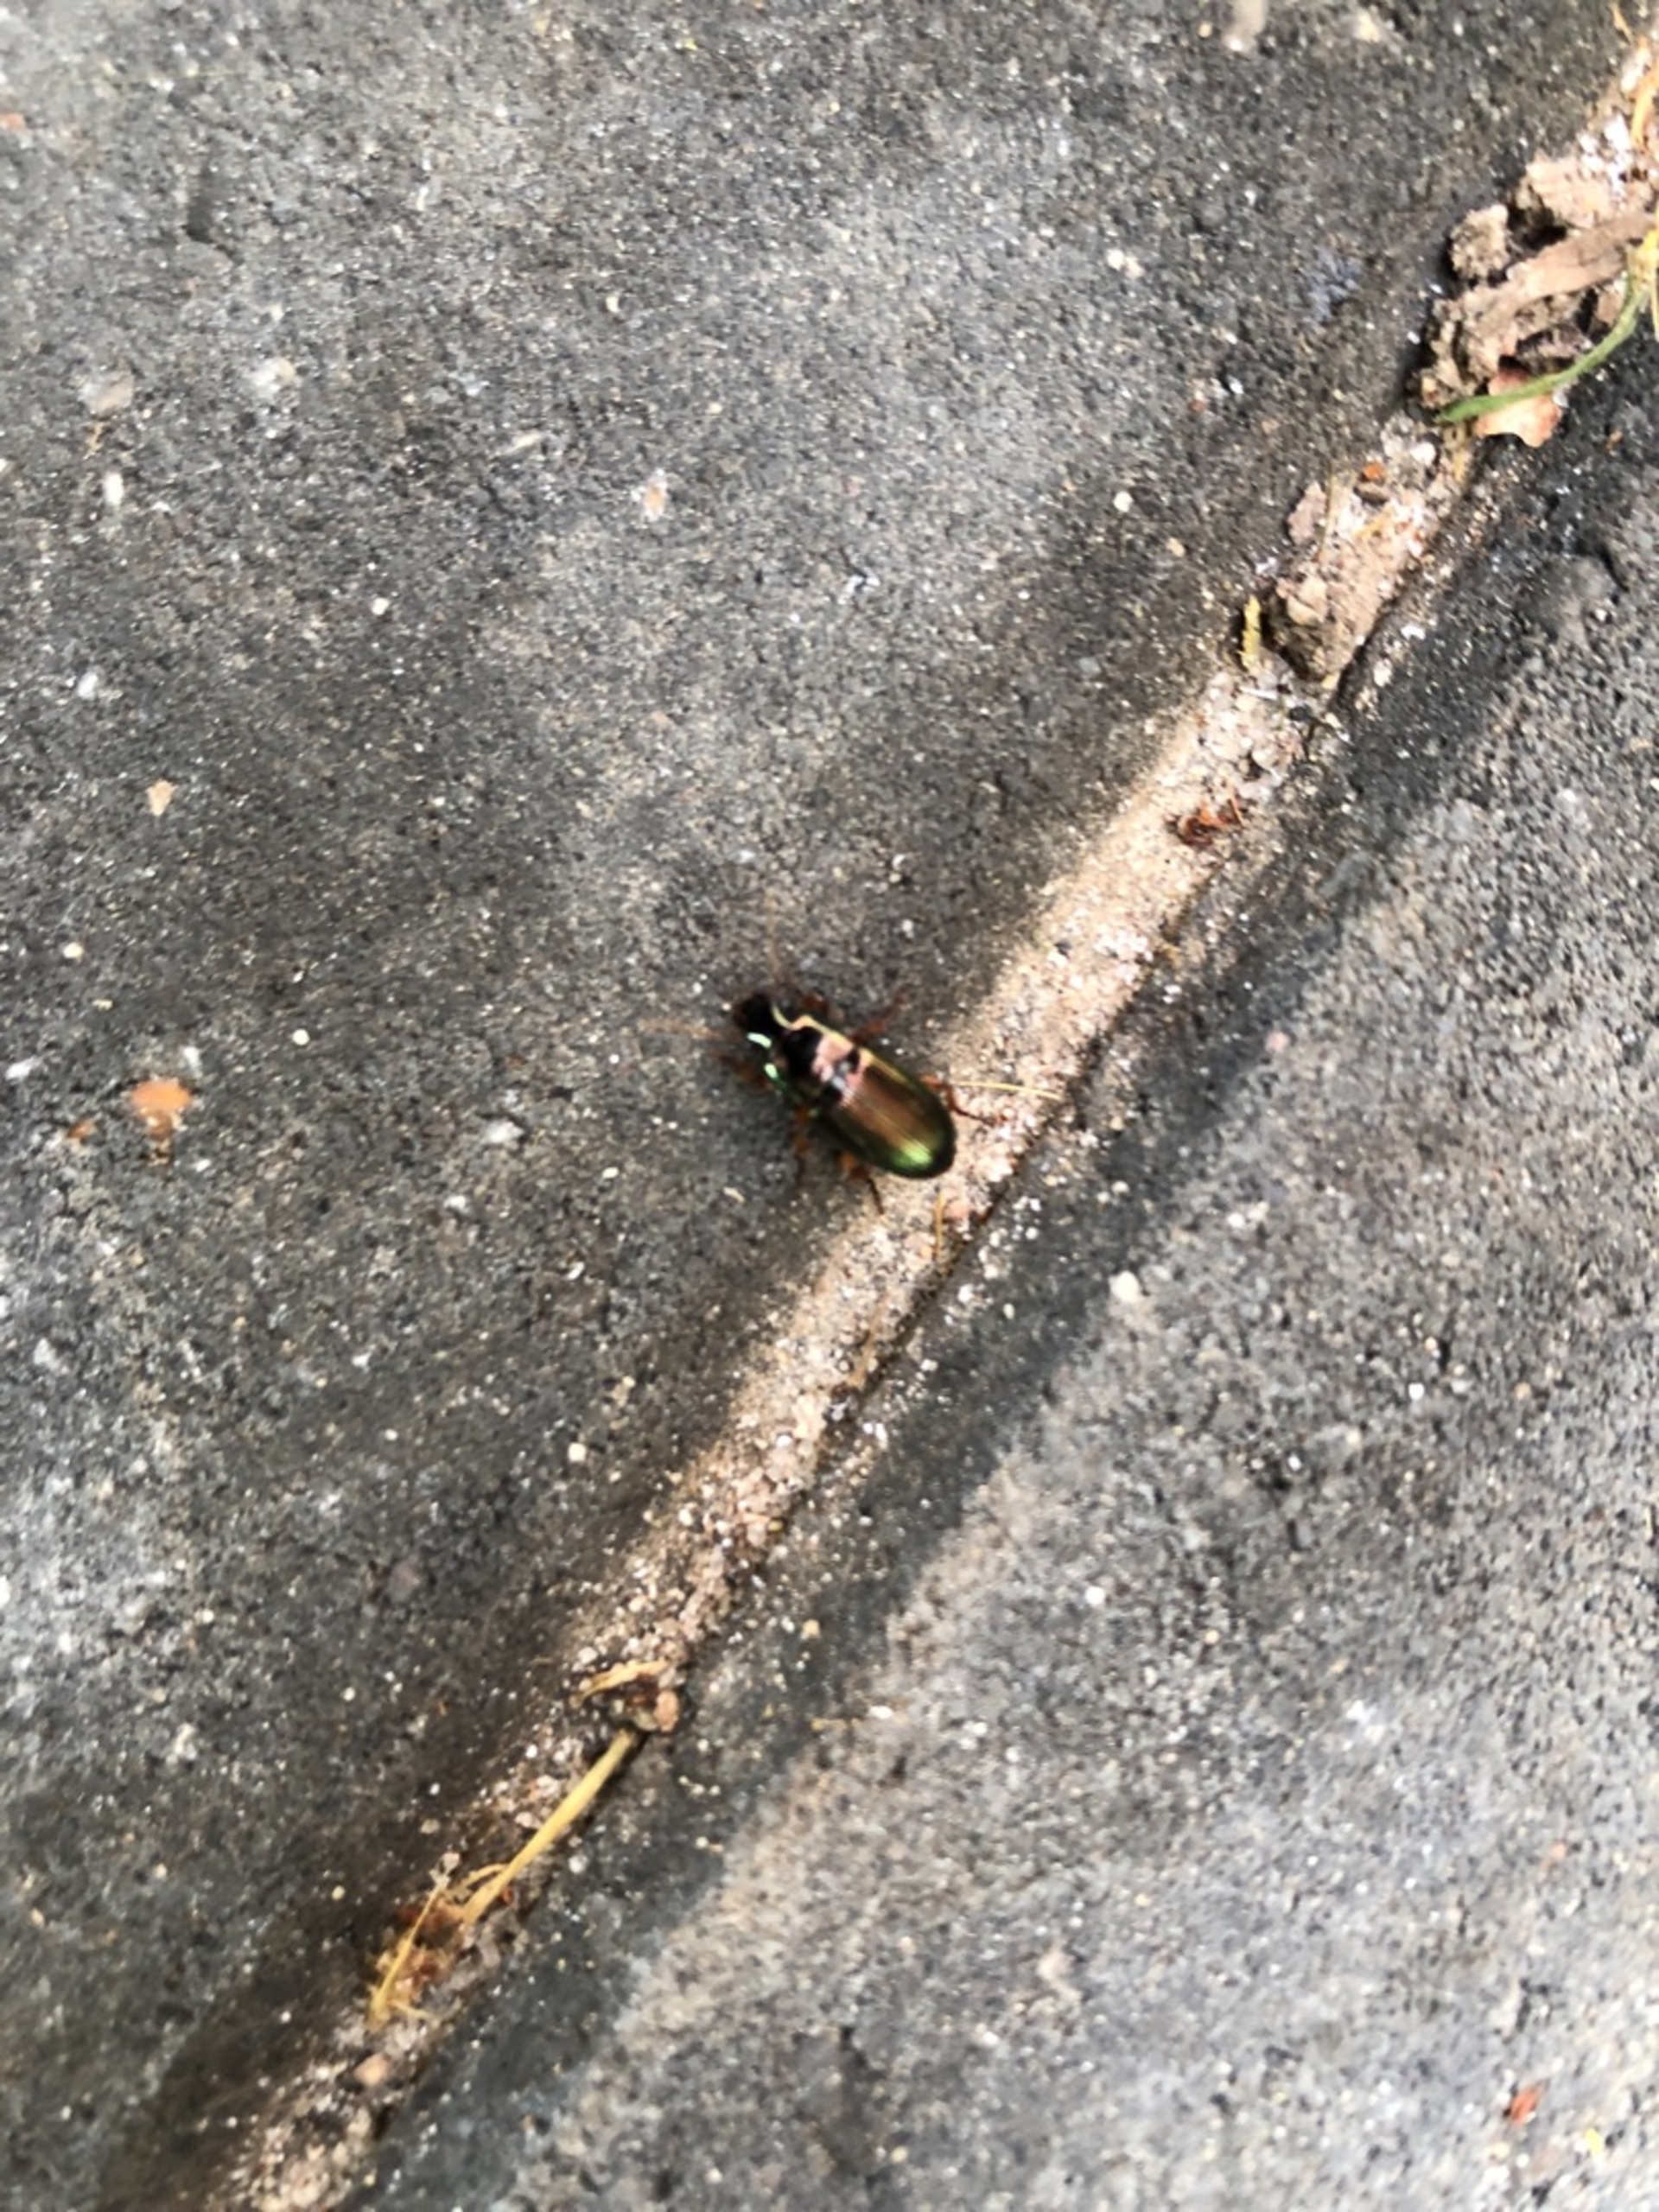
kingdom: Animalia
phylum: Arthropoda
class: Insecta
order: Coleoptera
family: Carabidae
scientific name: Carabidae
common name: Løbebiller
